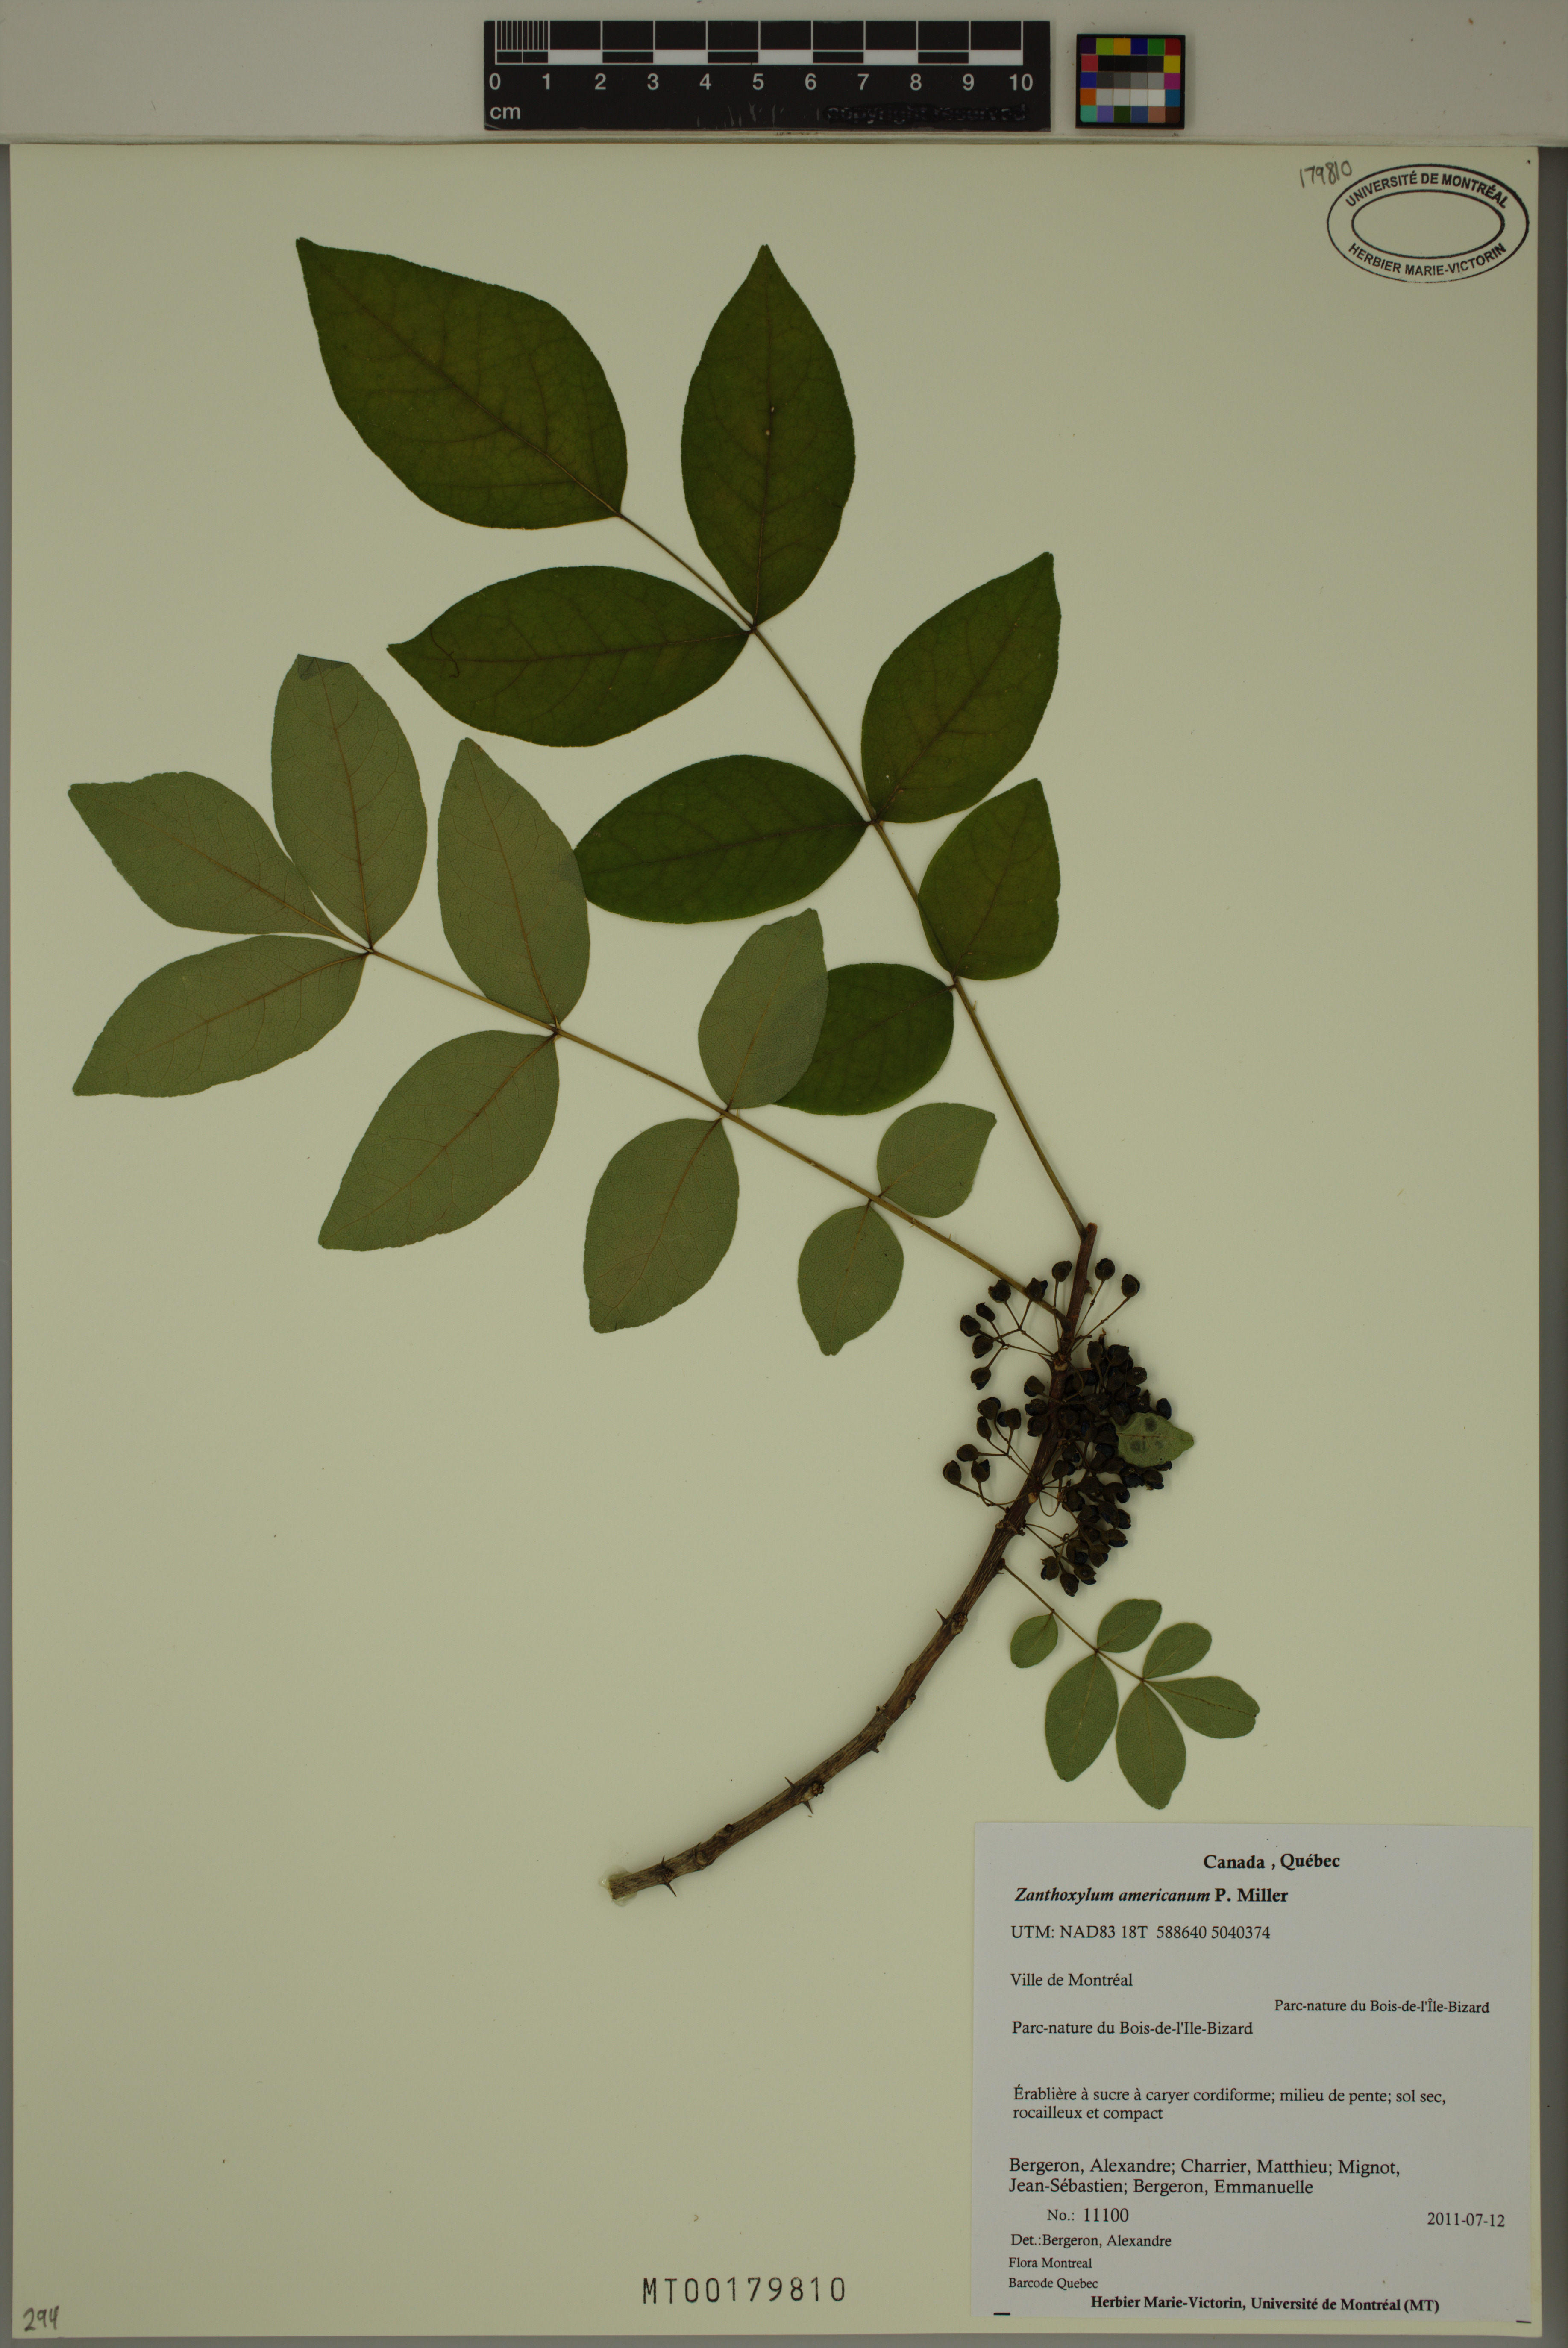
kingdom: Plantae
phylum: Tracheophyta
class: Magnoliopsida
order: Sapindales
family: Rutaceae
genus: Zanthoxylum
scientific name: Zanthoxylum americanum
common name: Northern prickly-ash
